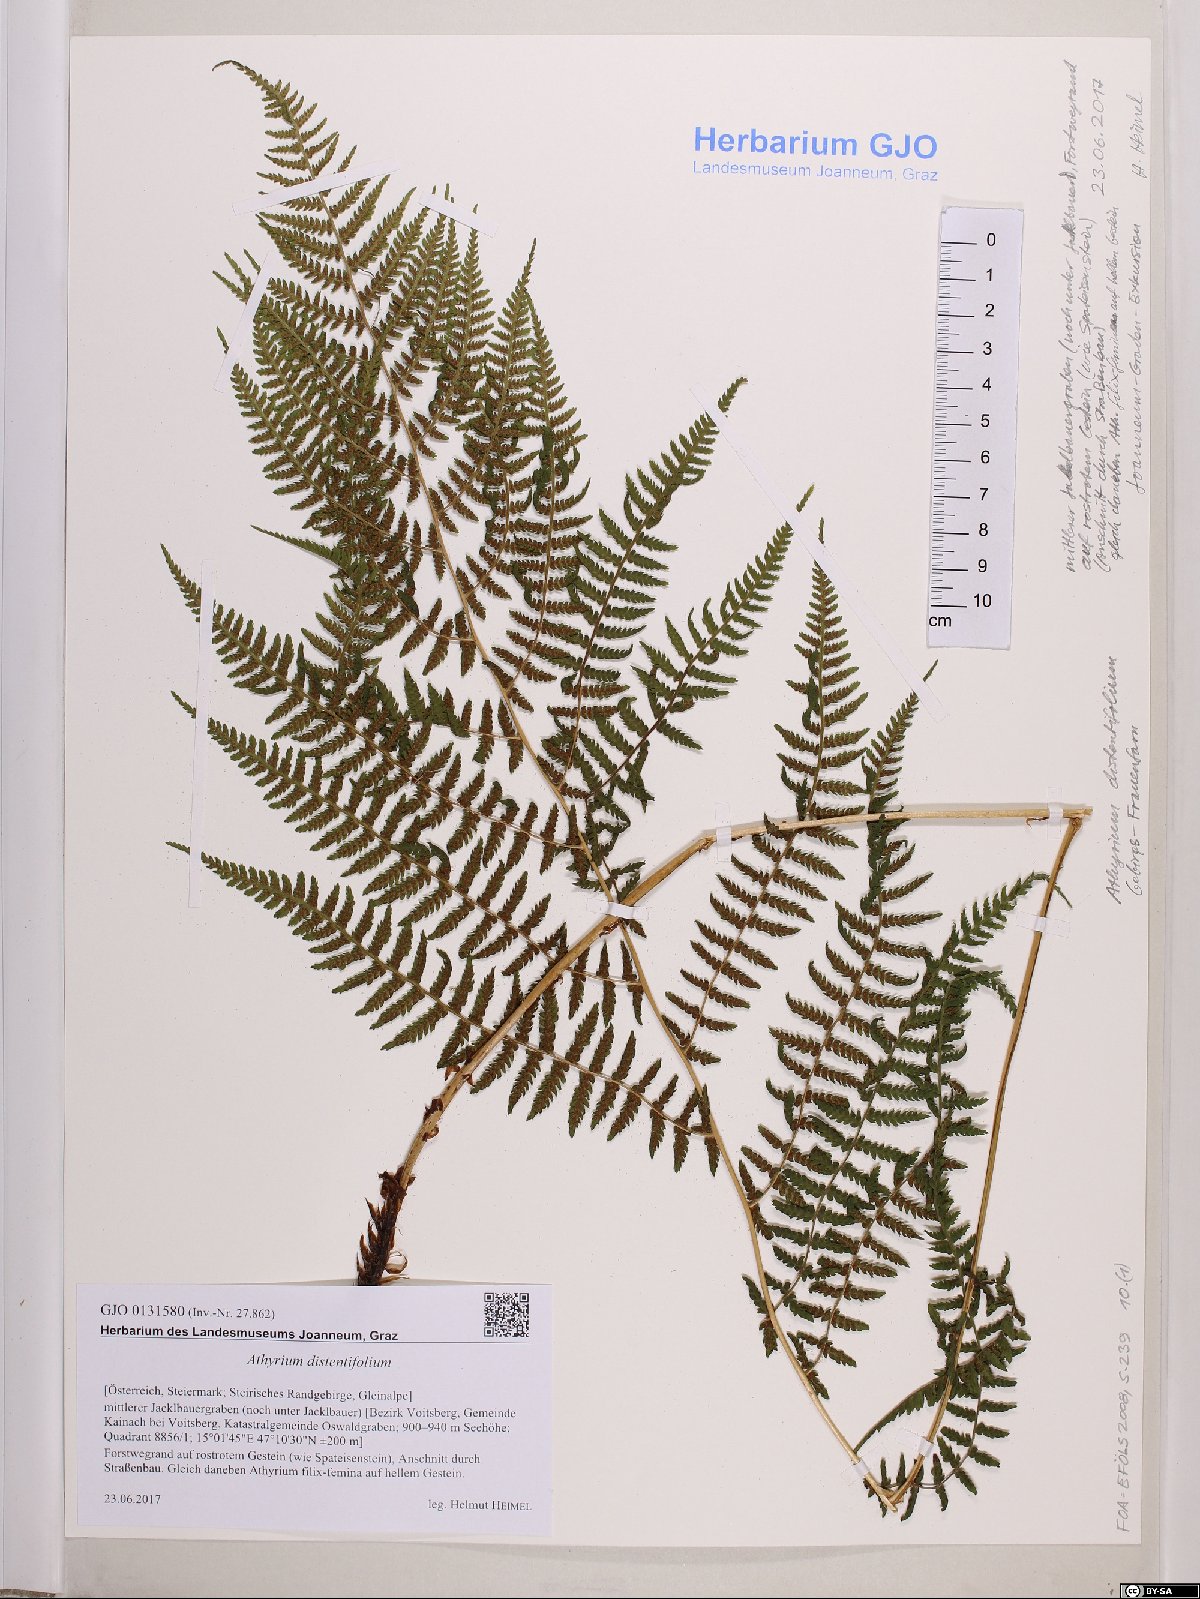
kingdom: Plantae
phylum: Tracheophyta
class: Polypodiopsida
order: Polypodiales
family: Athyriaceae
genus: Pseudathyrium
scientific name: Pseudathyrium alpestre
